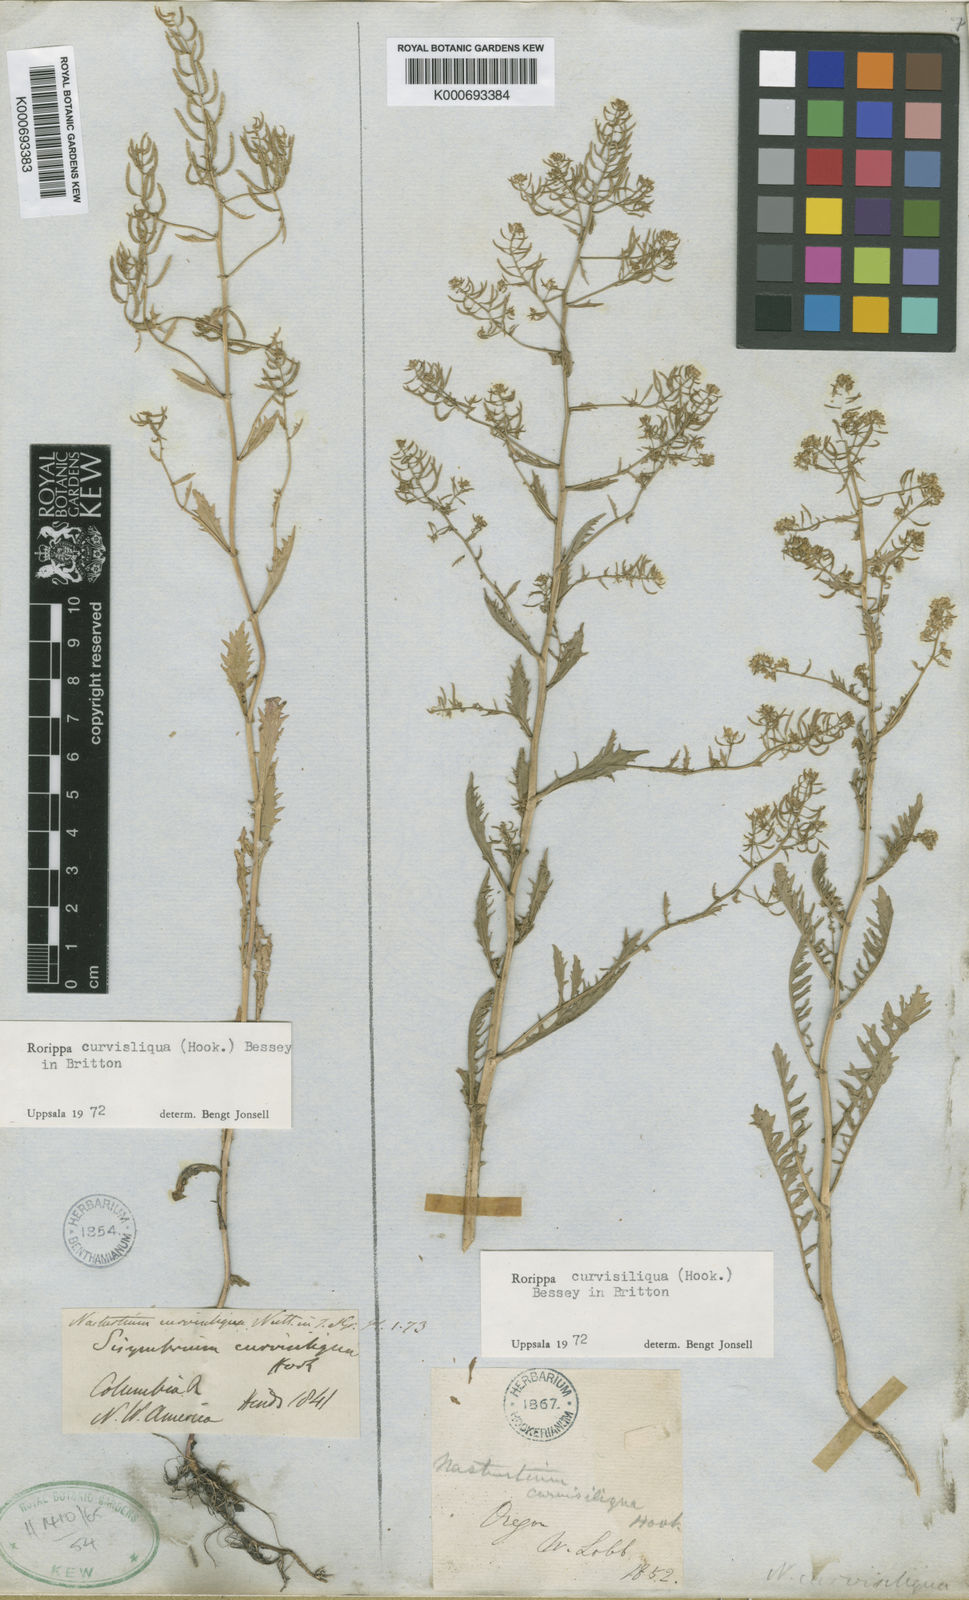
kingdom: Plantae
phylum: Tracheophyta
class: Magnoliopsida
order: Brassicales
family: Brassicaceae
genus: Rorippa
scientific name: Rorippa curvisiliqua
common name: Curve-pod yellow cress
